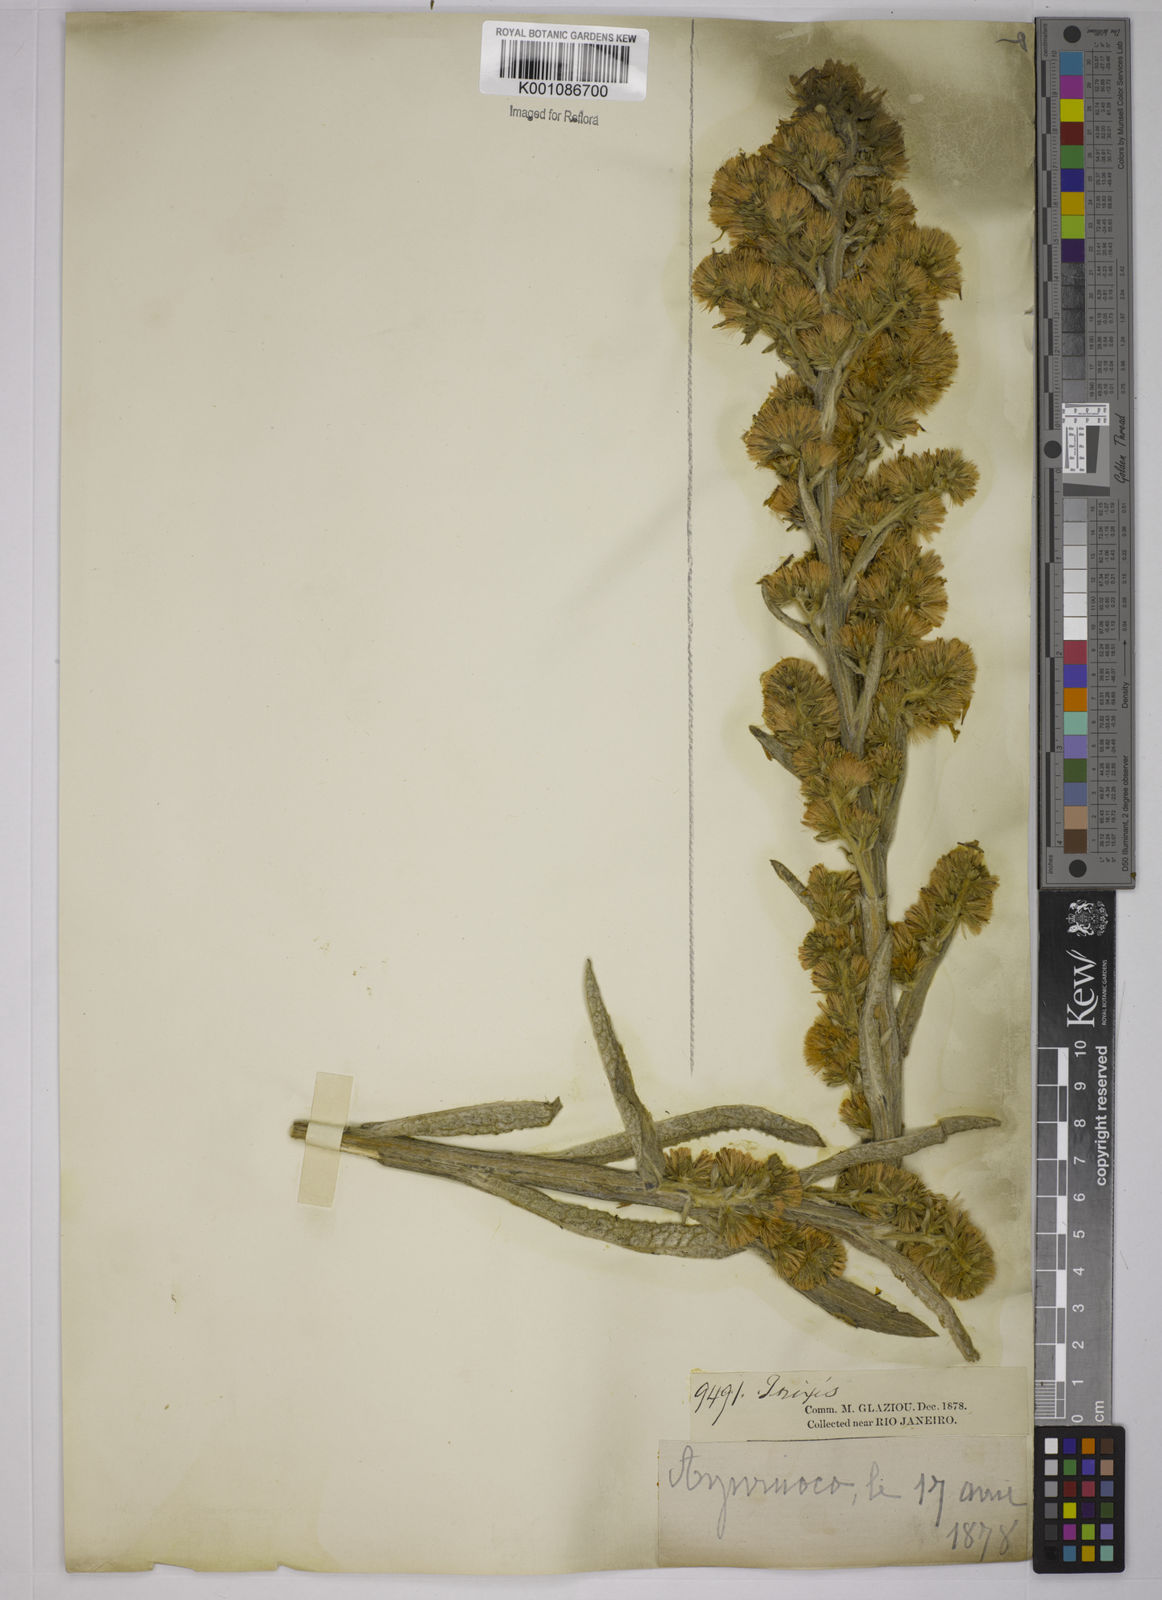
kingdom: Plantae
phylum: Tracheophyta
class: Magnoliopsida
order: Asterales
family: Asteraceae
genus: Trixis
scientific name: Trixis nobilis
